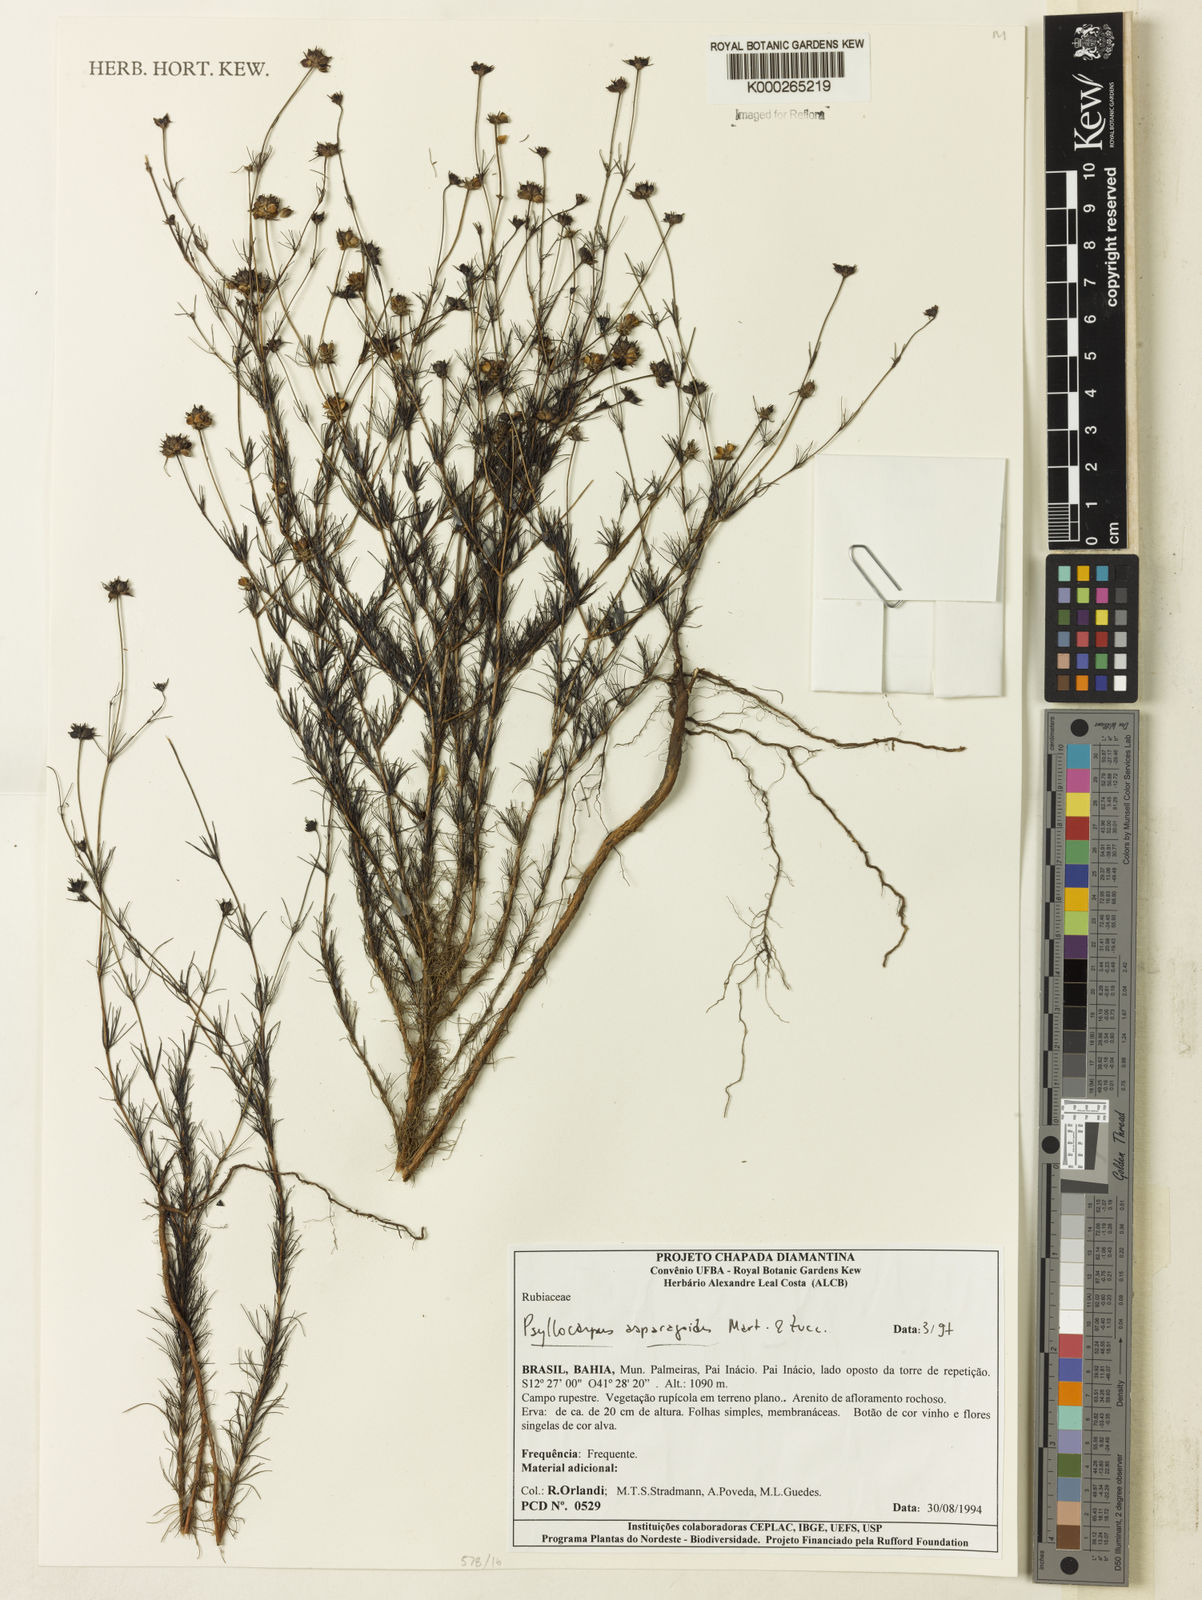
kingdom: Plantae
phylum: Tracheophyta
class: Magnoliopsida
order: Gentianales
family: Rubiaceae
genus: Psyllocarpus
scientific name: Psyllocarpus asparagoides
